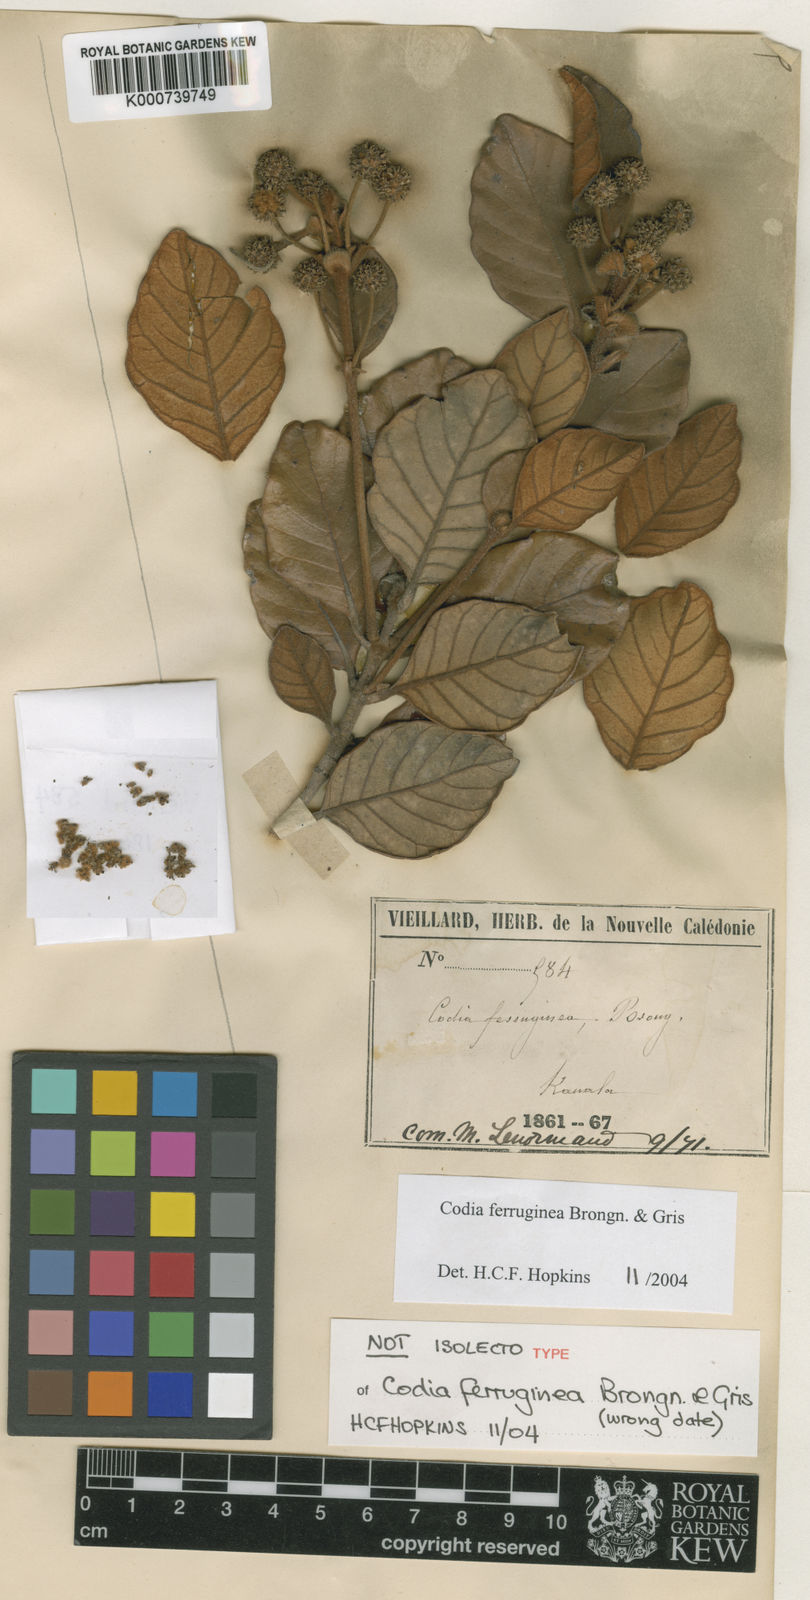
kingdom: Plantae
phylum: Tracheophyta
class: Magnoliopsida
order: Oxalidales
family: Cunoniaceae
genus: Codia
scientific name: Codia ferruginea
